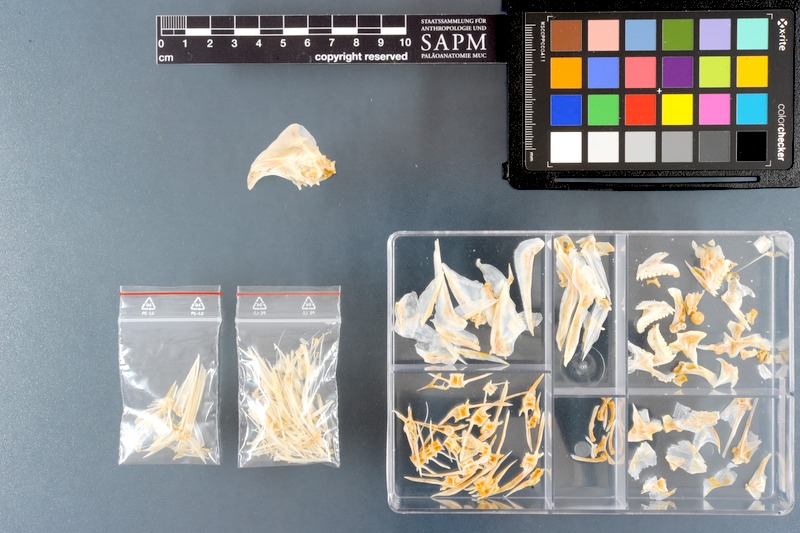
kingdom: Animalia
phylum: Chordata
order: Perciformes
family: Sparidae
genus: Argyrops
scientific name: Argyrops filamentosus
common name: Soldier bream
